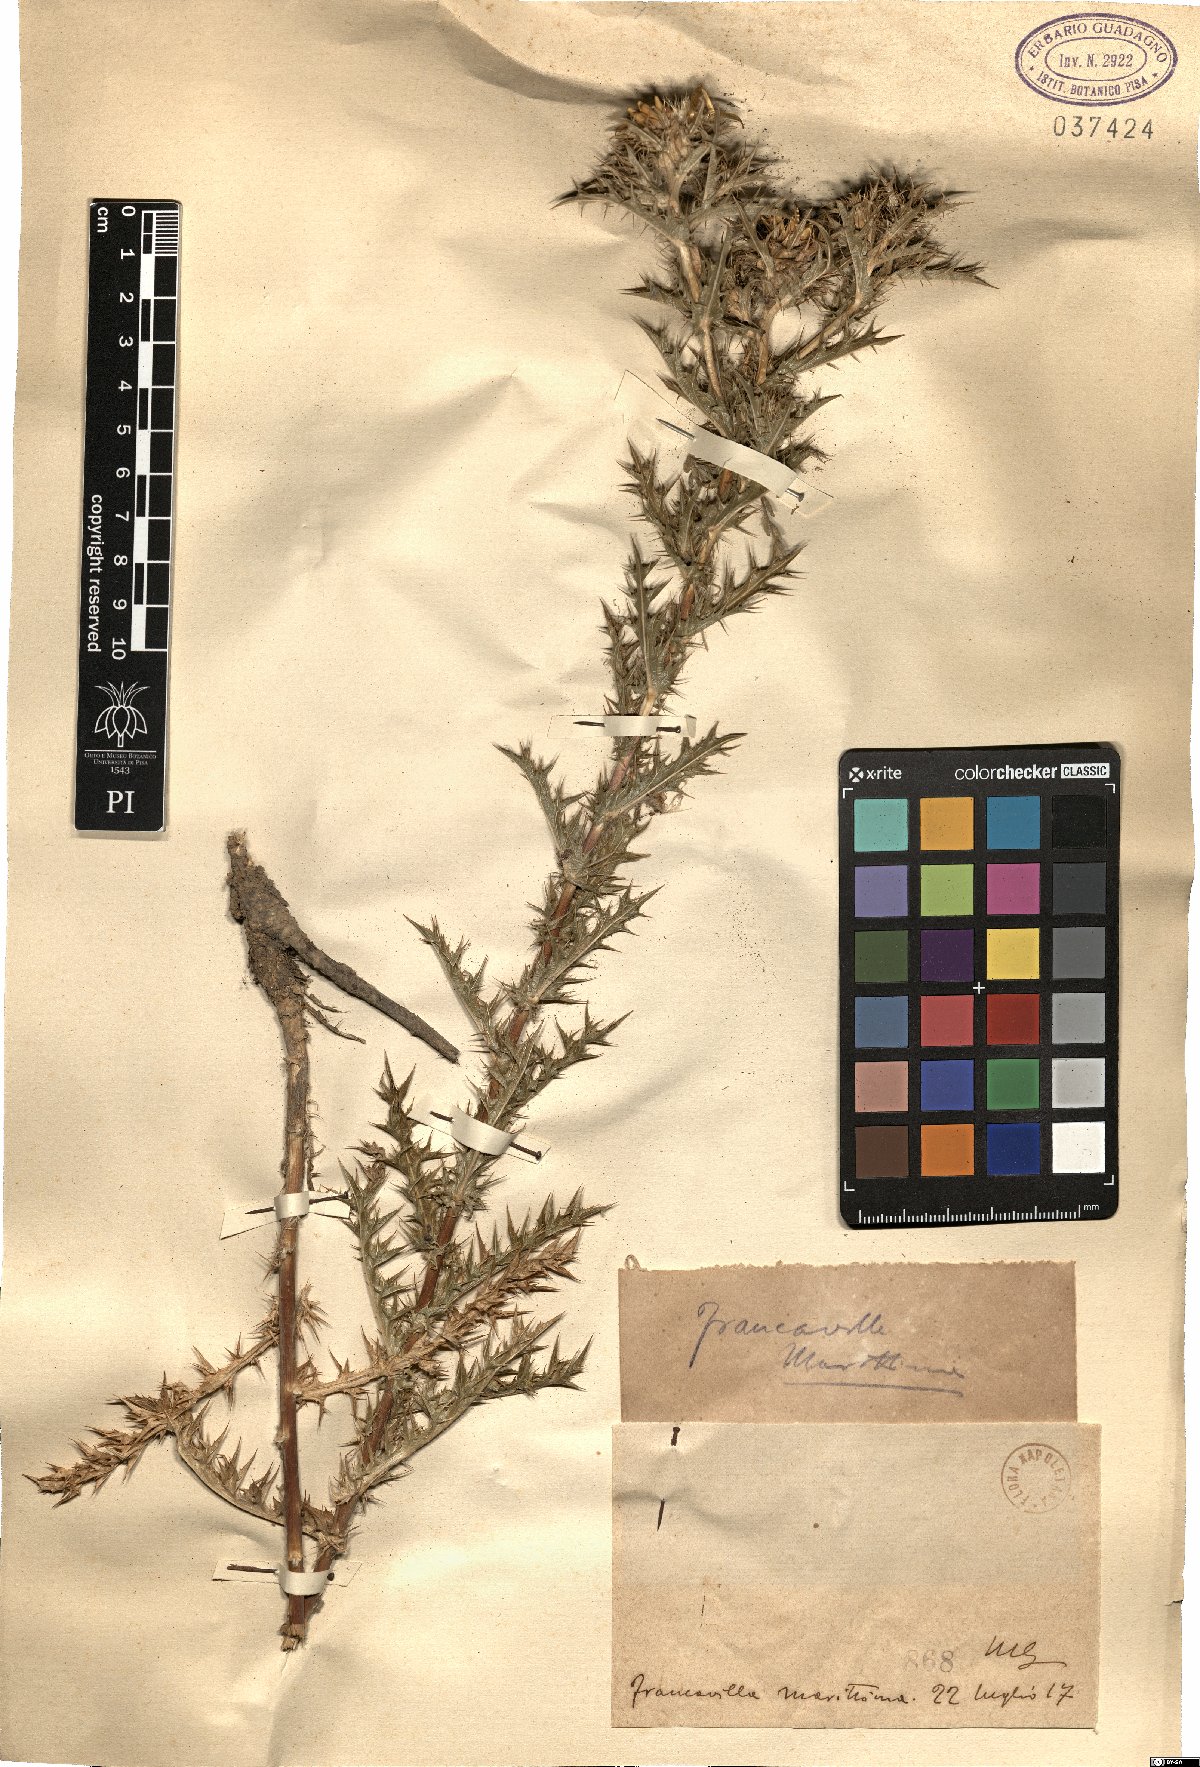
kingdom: Plantae
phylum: Tracheophyta
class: Magnoliopsida
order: Asterales
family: Asteraceae
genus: Carlina
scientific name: Carlina
